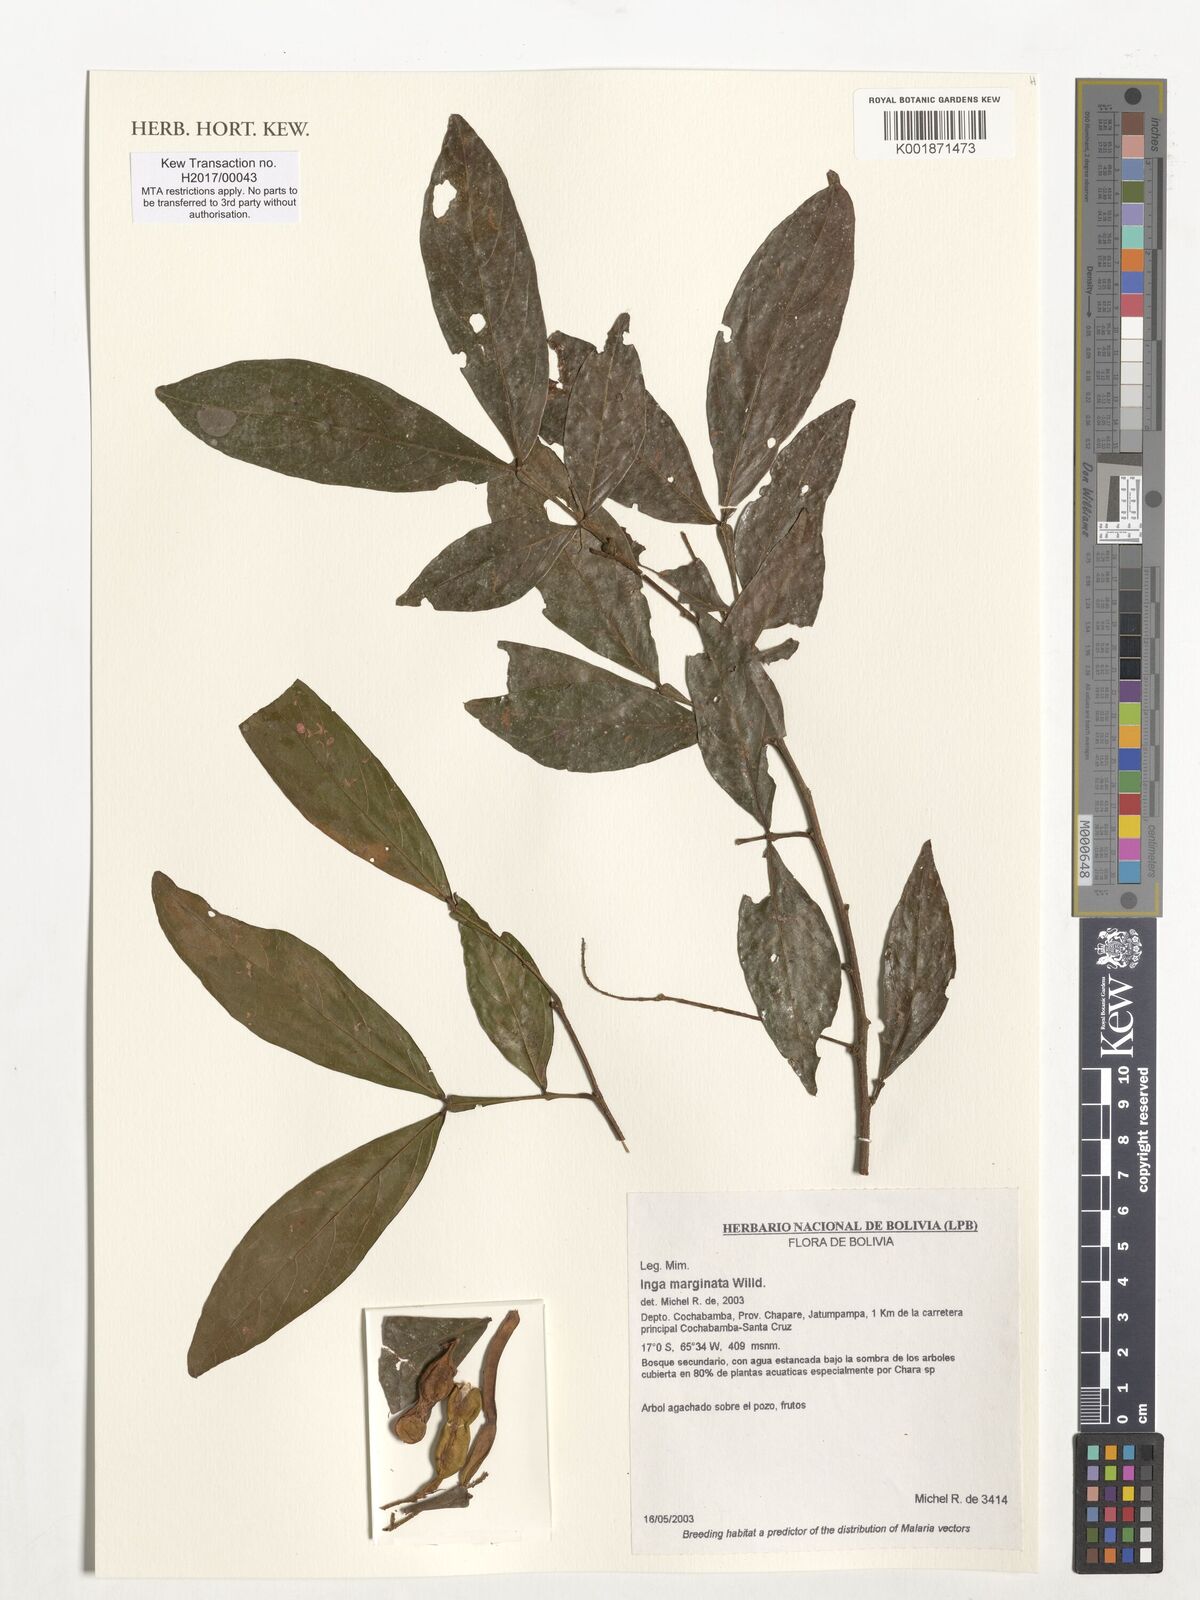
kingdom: Plantae
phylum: Tracheophyta
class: Magnoliopsida
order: Fabales
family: Fabaceae
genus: Inga
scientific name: Inga marginata
